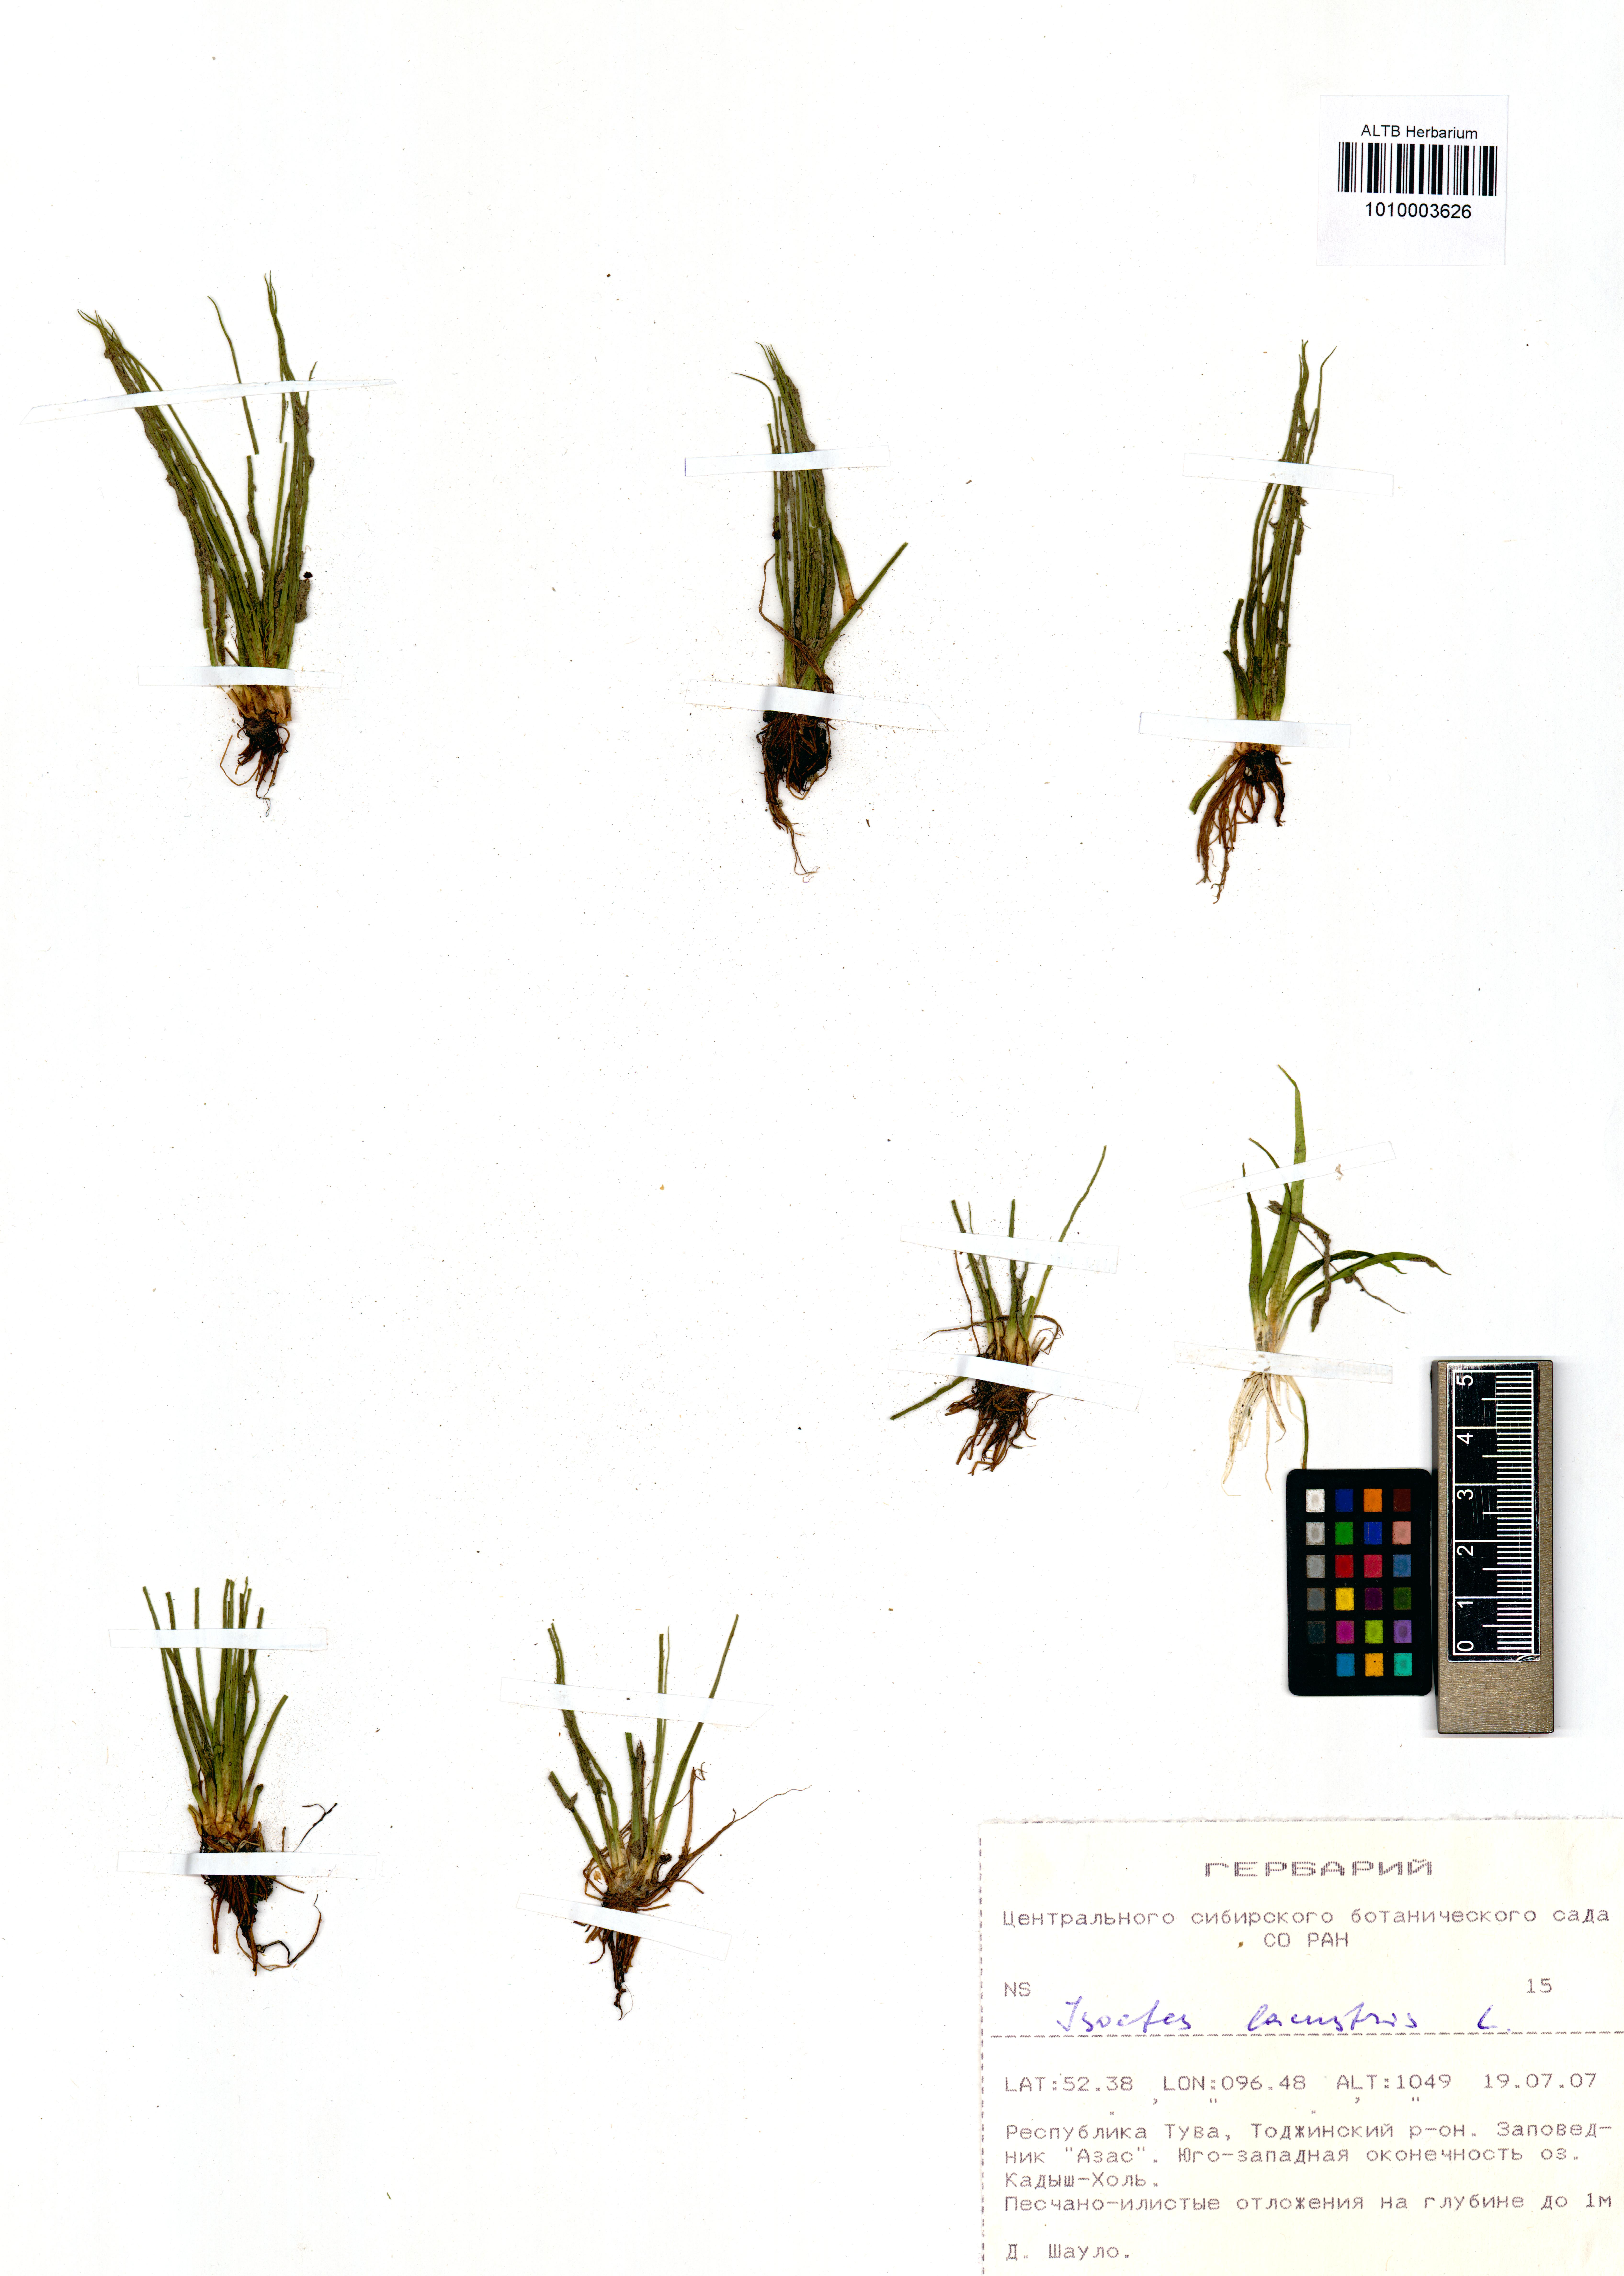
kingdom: Plantae
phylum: Tracheophyta
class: Lycopodiopsida
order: Isoetales
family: Isoetaceae
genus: Isoetes
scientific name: Isoetes lacustris
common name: Common quillwort
